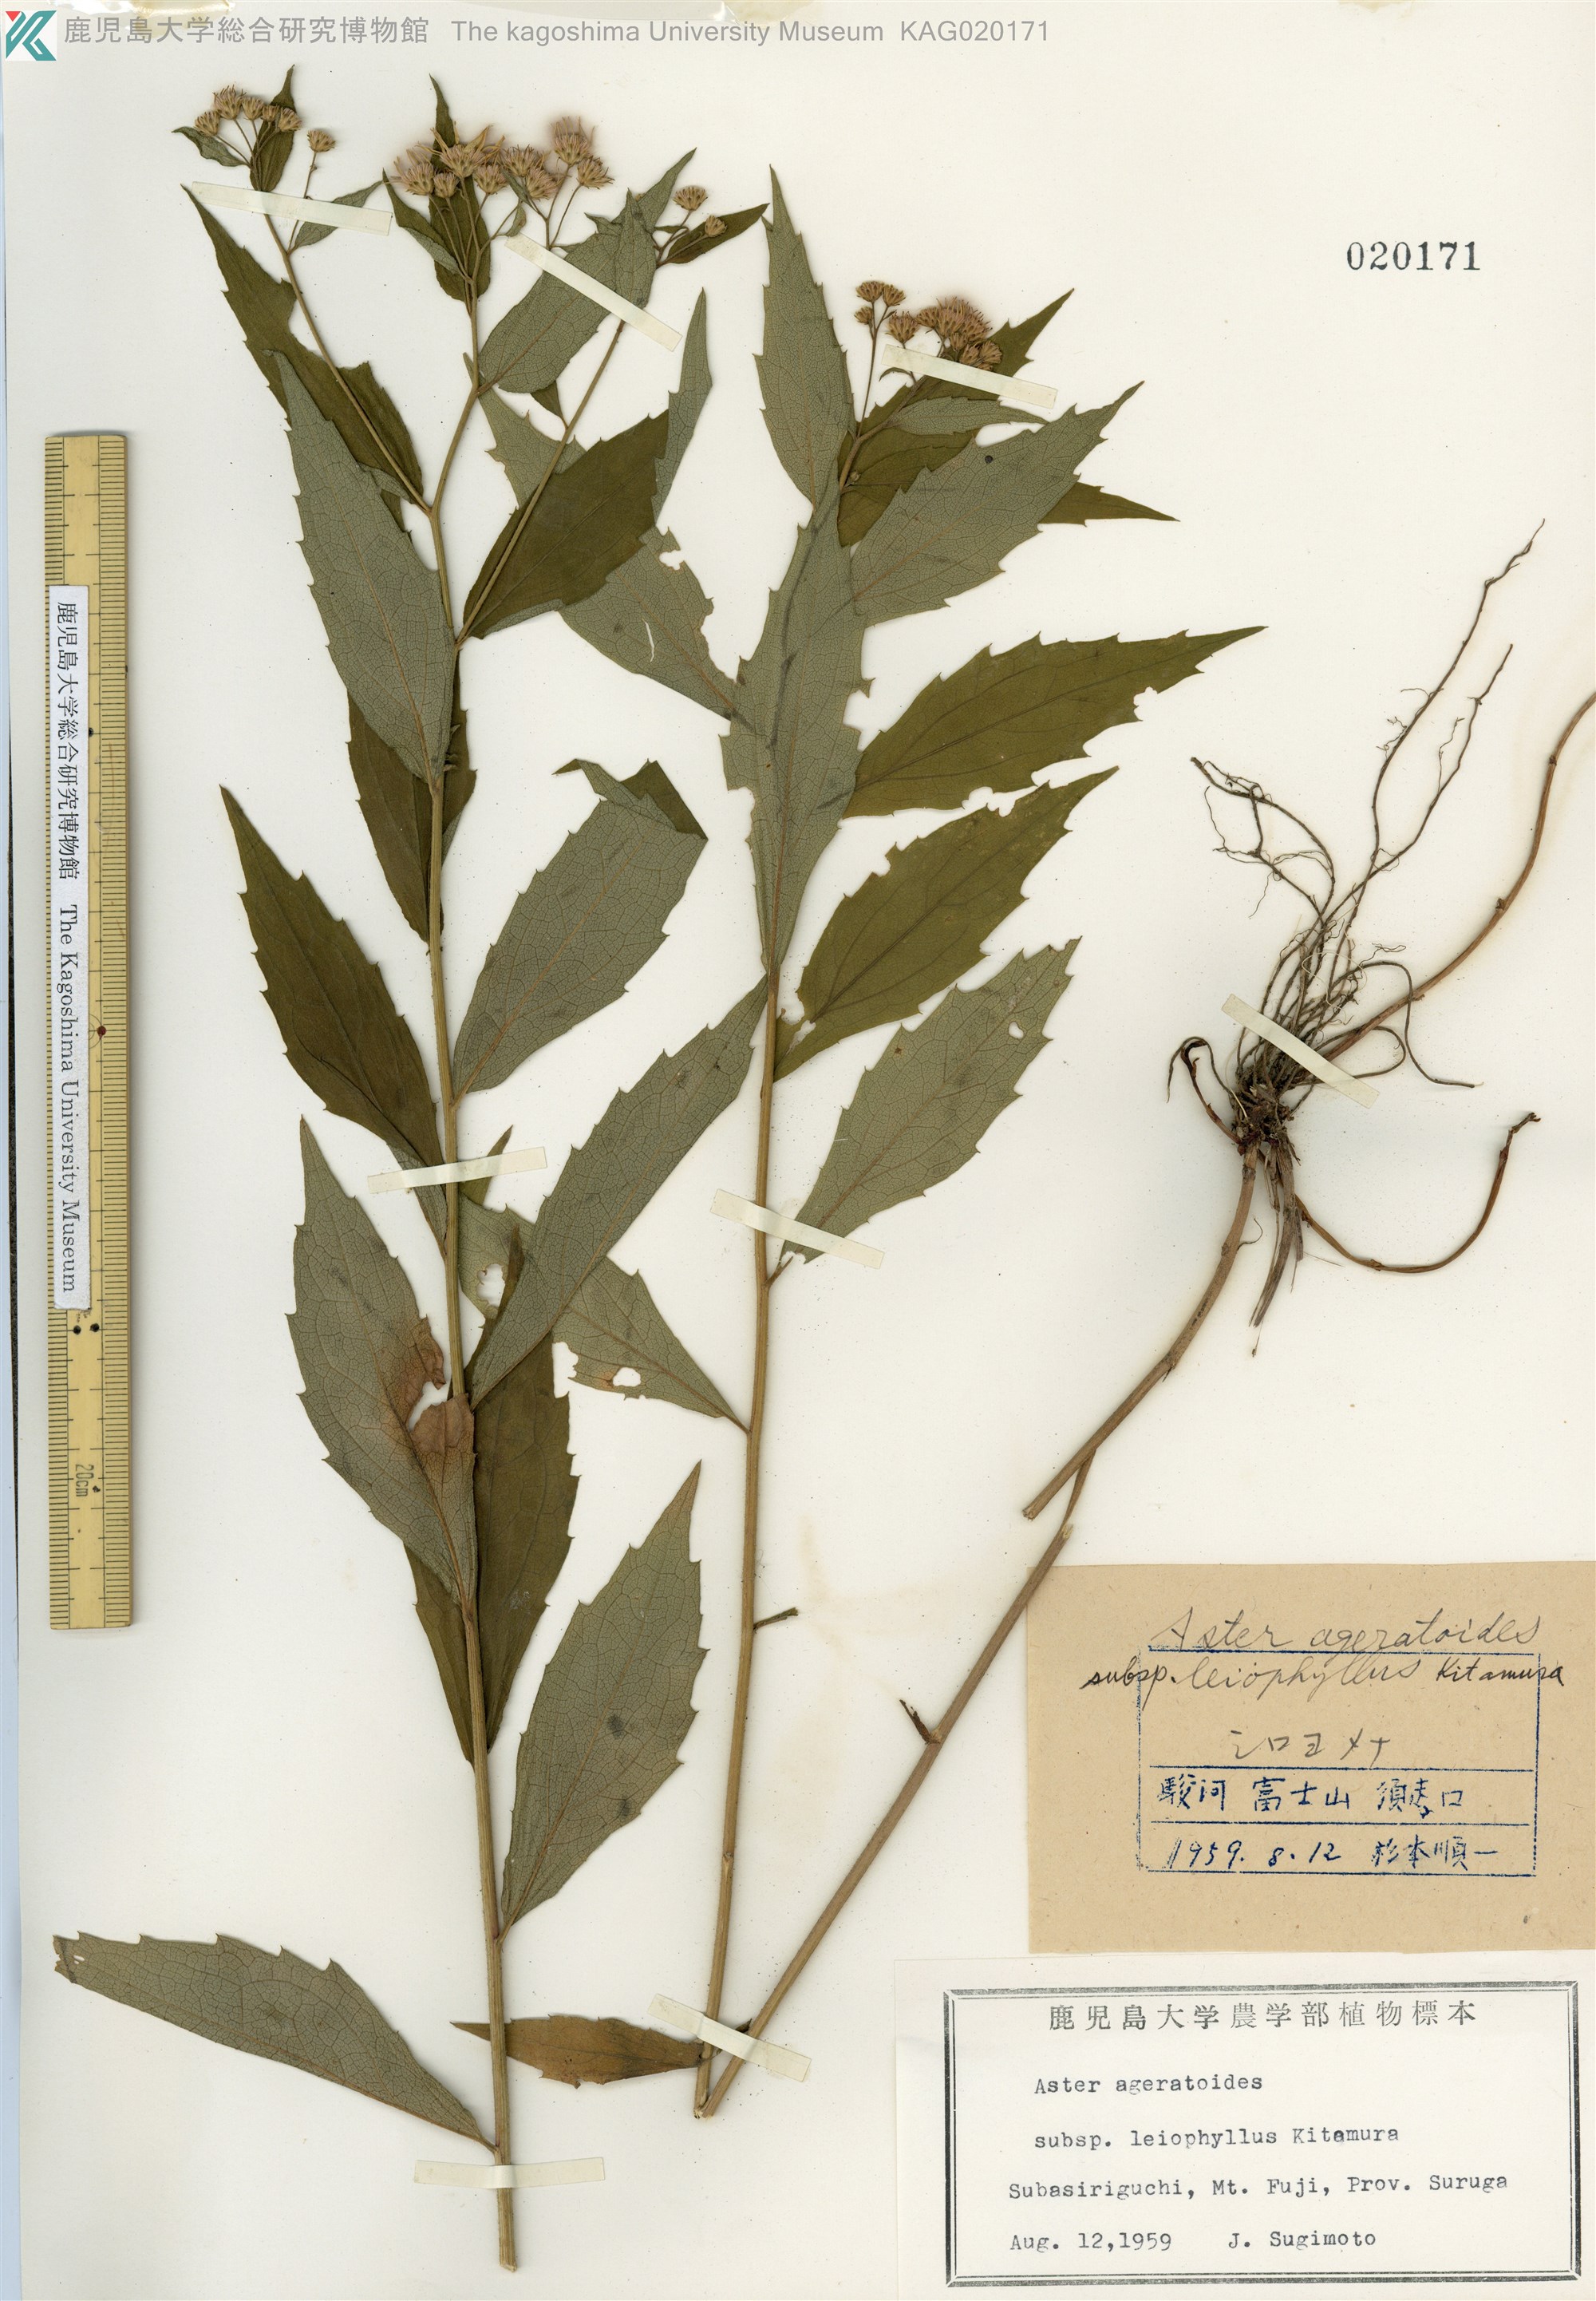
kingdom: Plantae
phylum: Tracheophyta
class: Magnoliopsida
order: Asterales
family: Asteraceae
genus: Aster
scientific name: Aster ageratoides
